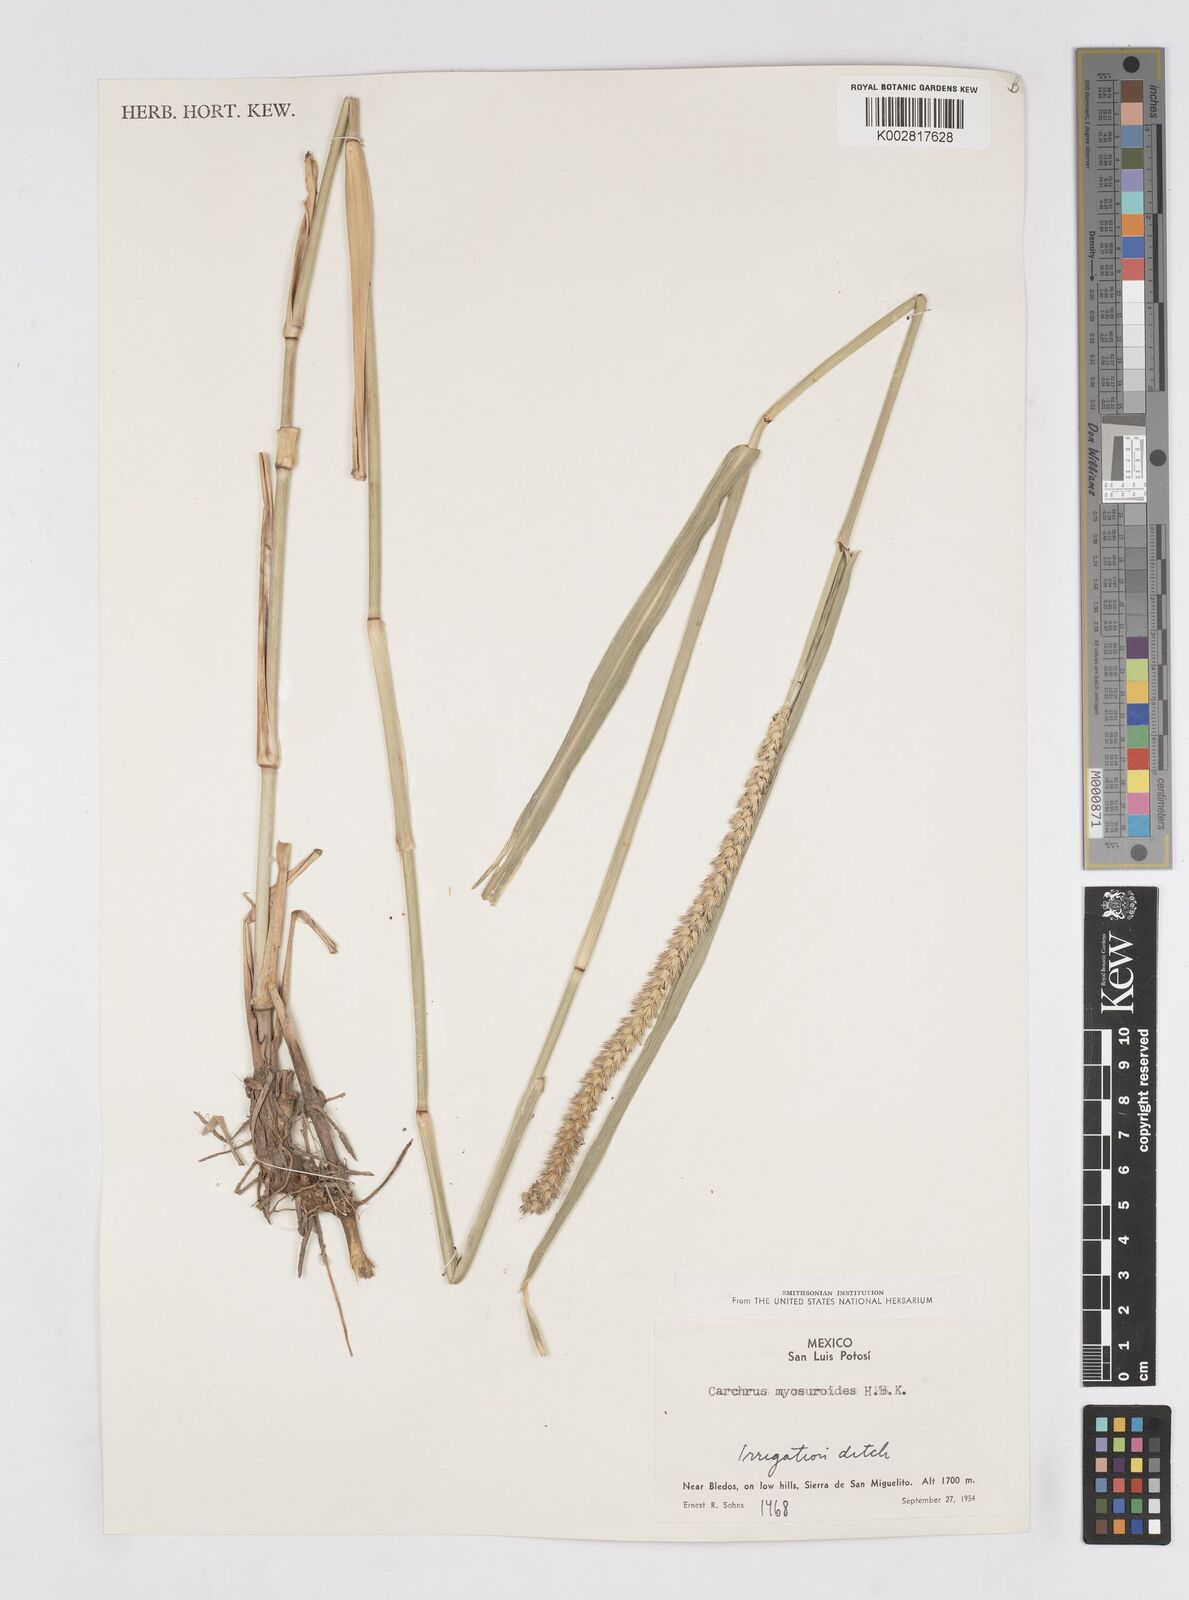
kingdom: Plantae
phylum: Tracheophyta
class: Liliopsida
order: Poales
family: Poaceae
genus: Cenchrus
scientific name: Cenchrus myosuroides
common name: Big sandbur
